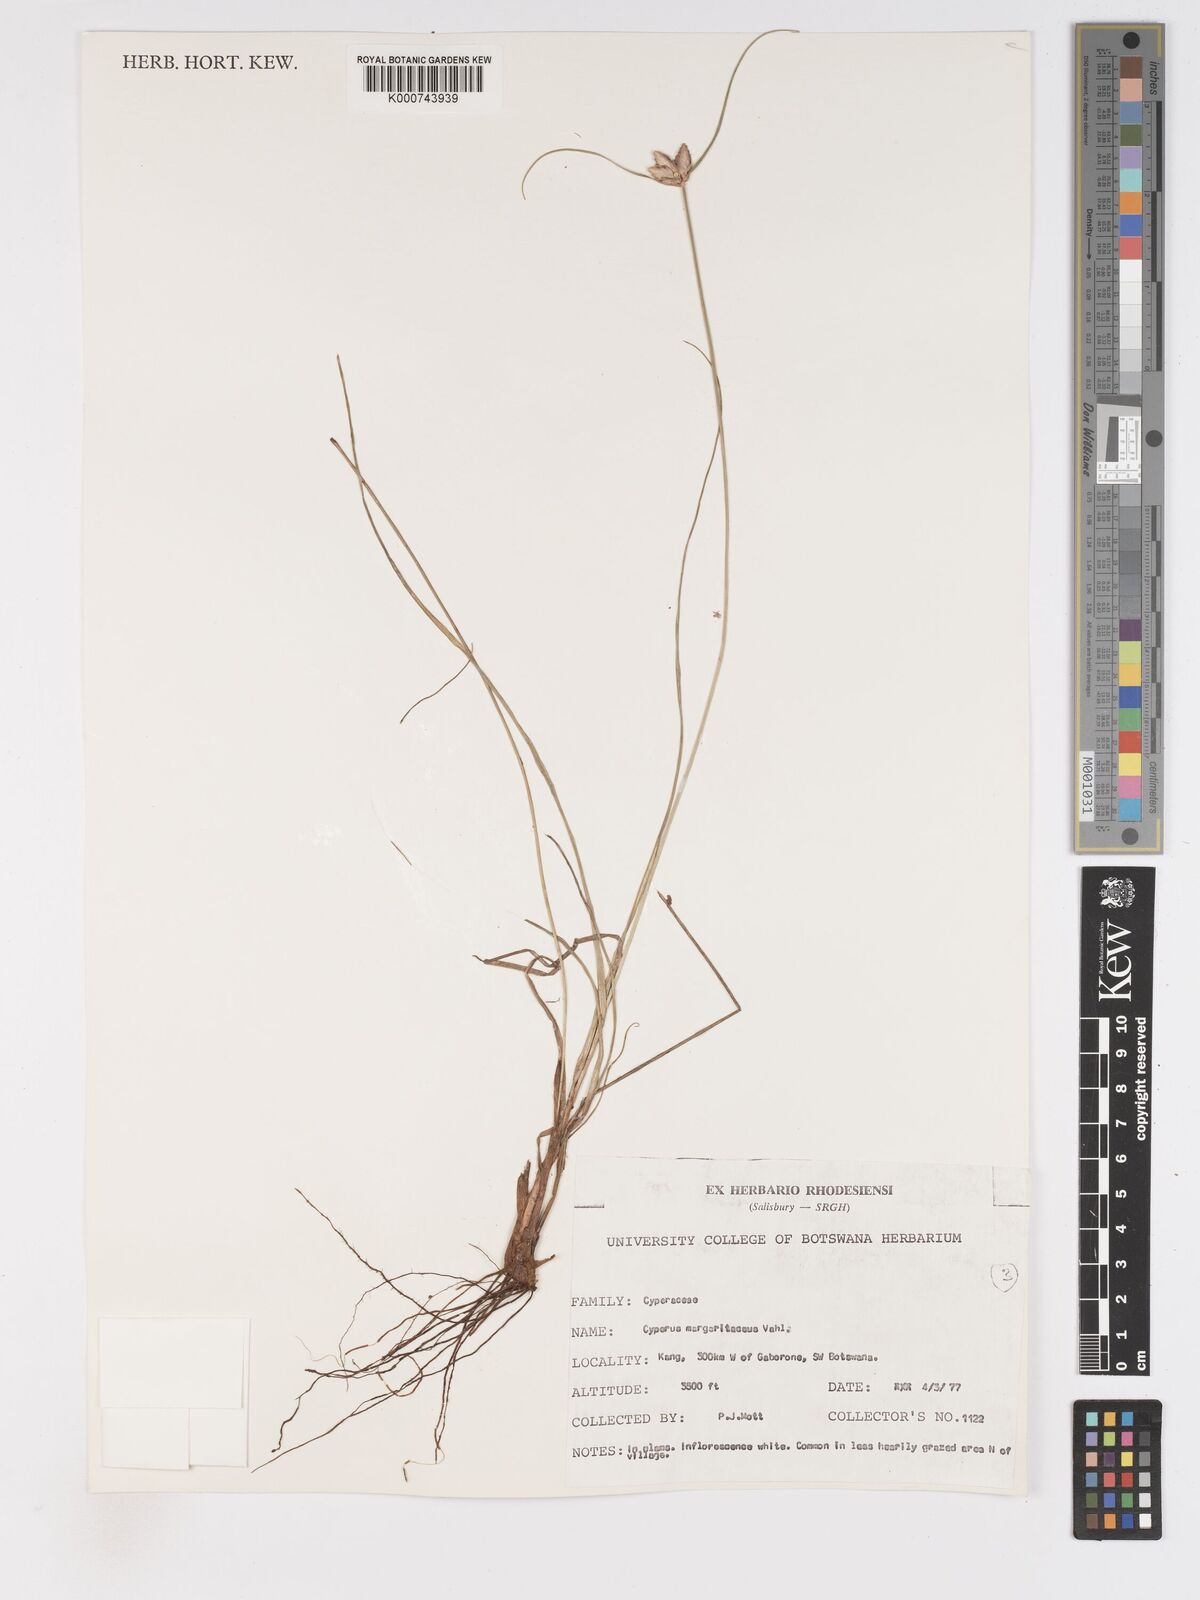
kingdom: Plantae
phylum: Tracheophyta
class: Liliopsida
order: Poales
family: Cyperaceae
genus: Cyperus
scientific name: Cyperus margaritaceus
